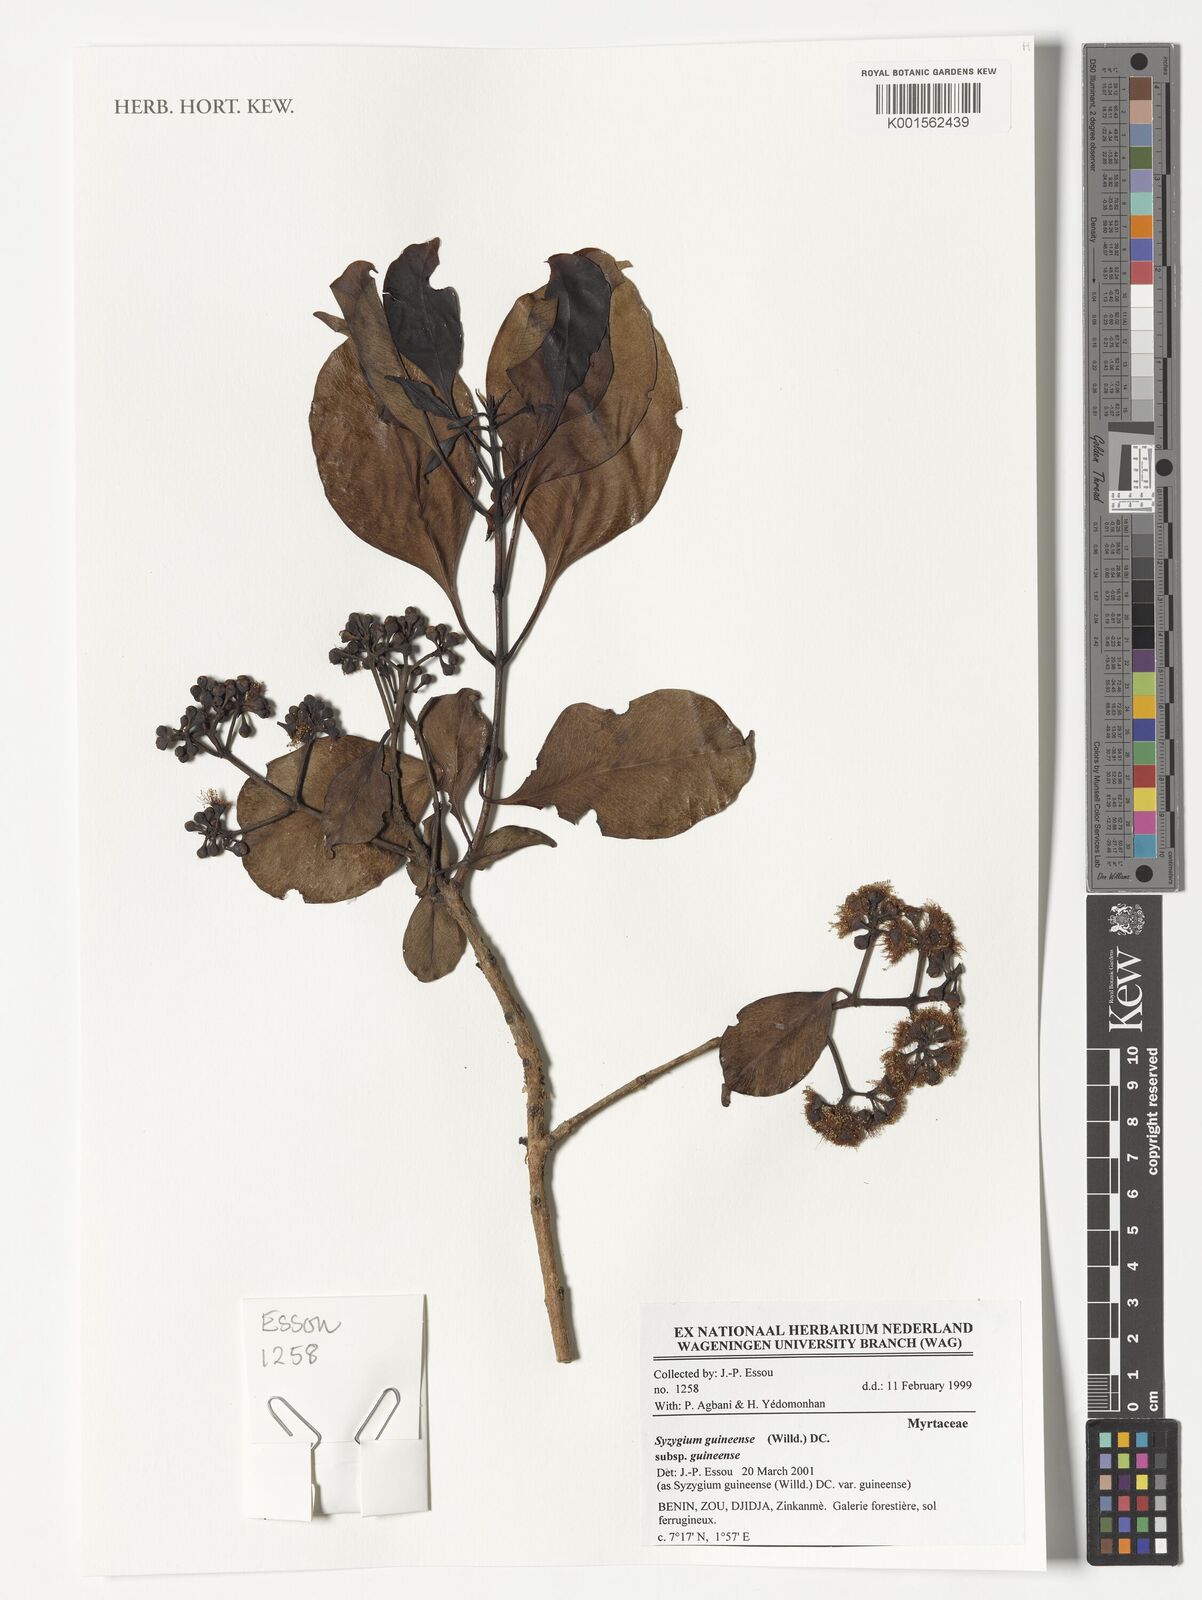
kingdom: Plantae
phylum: Tracheophyta
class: Magnoliopsida
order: Myrtales
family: Myrtaceae
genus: Syzygium
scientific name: Syzygium guineense
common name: Water-pear
